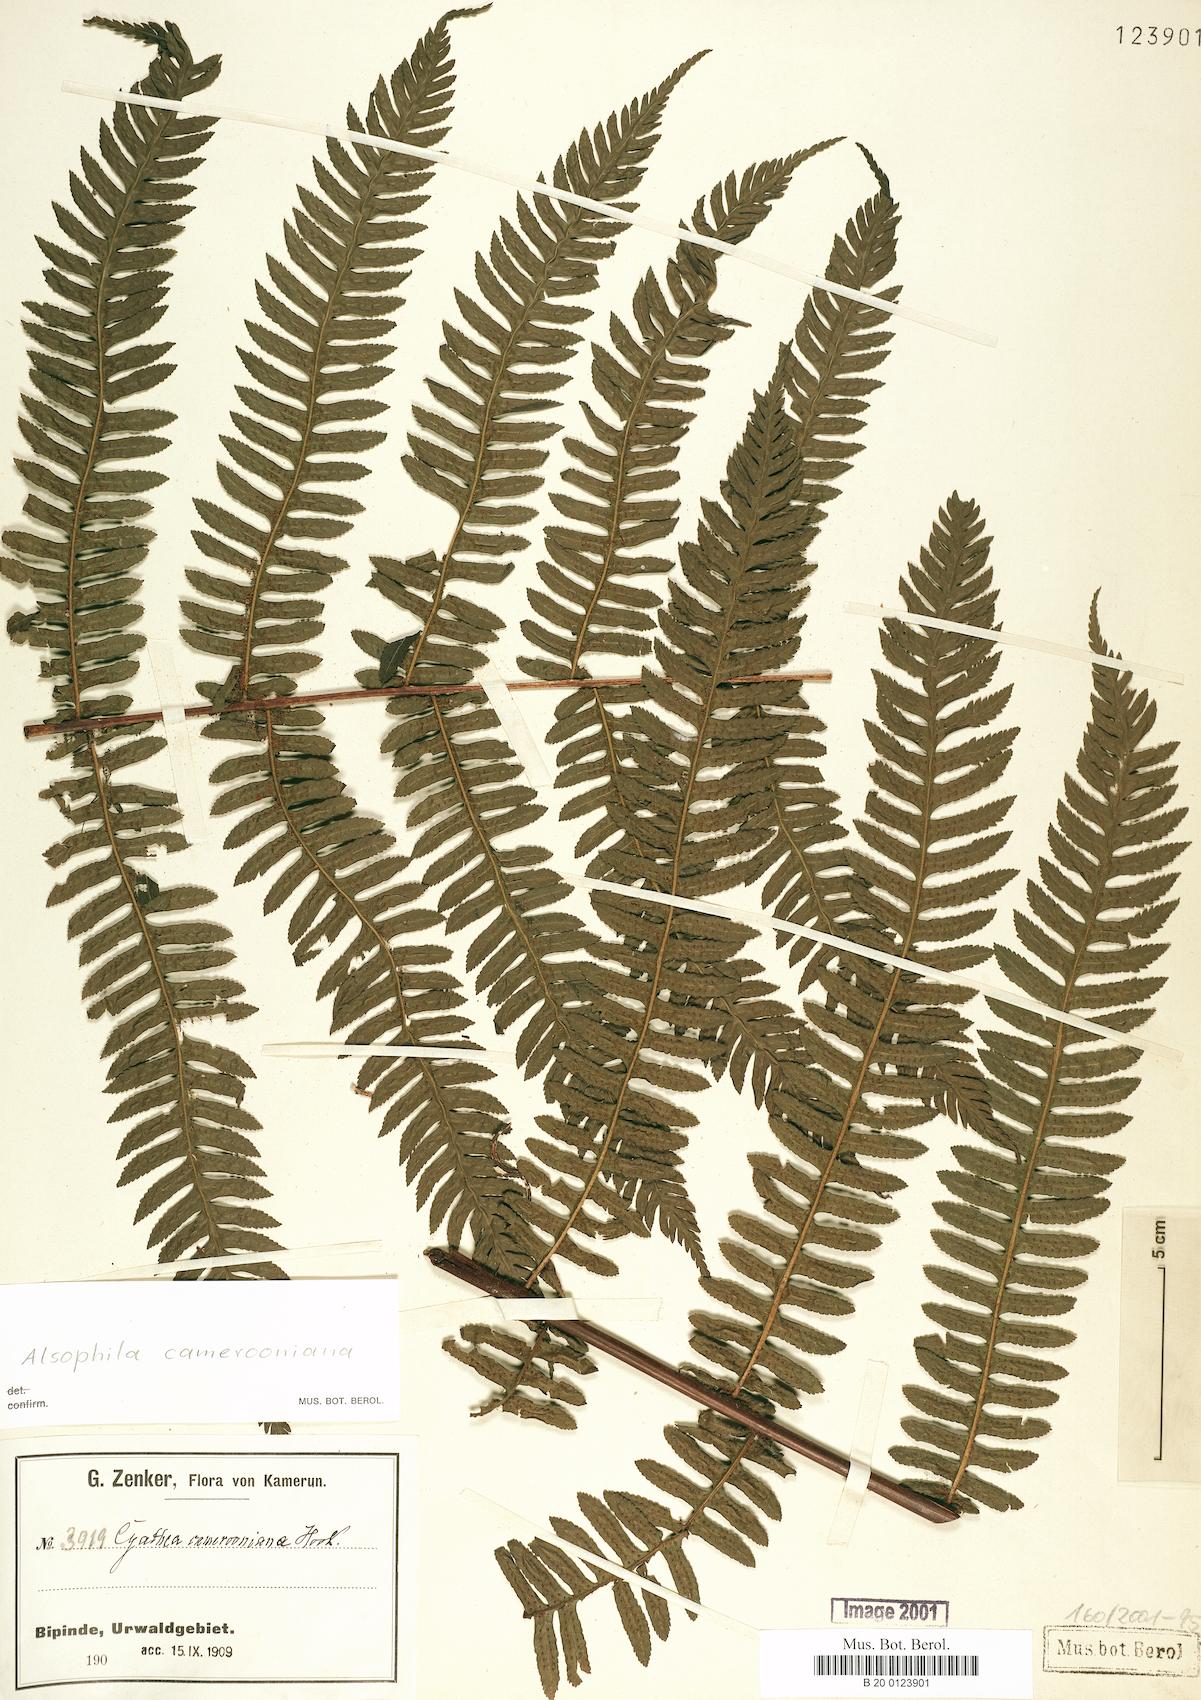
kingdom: Plantae
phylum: Tracheophyta
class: Polypodiopsida
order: Cyatheales
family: Cyatheaceae
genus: Alsophila
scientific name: Alsophila camerooniana
